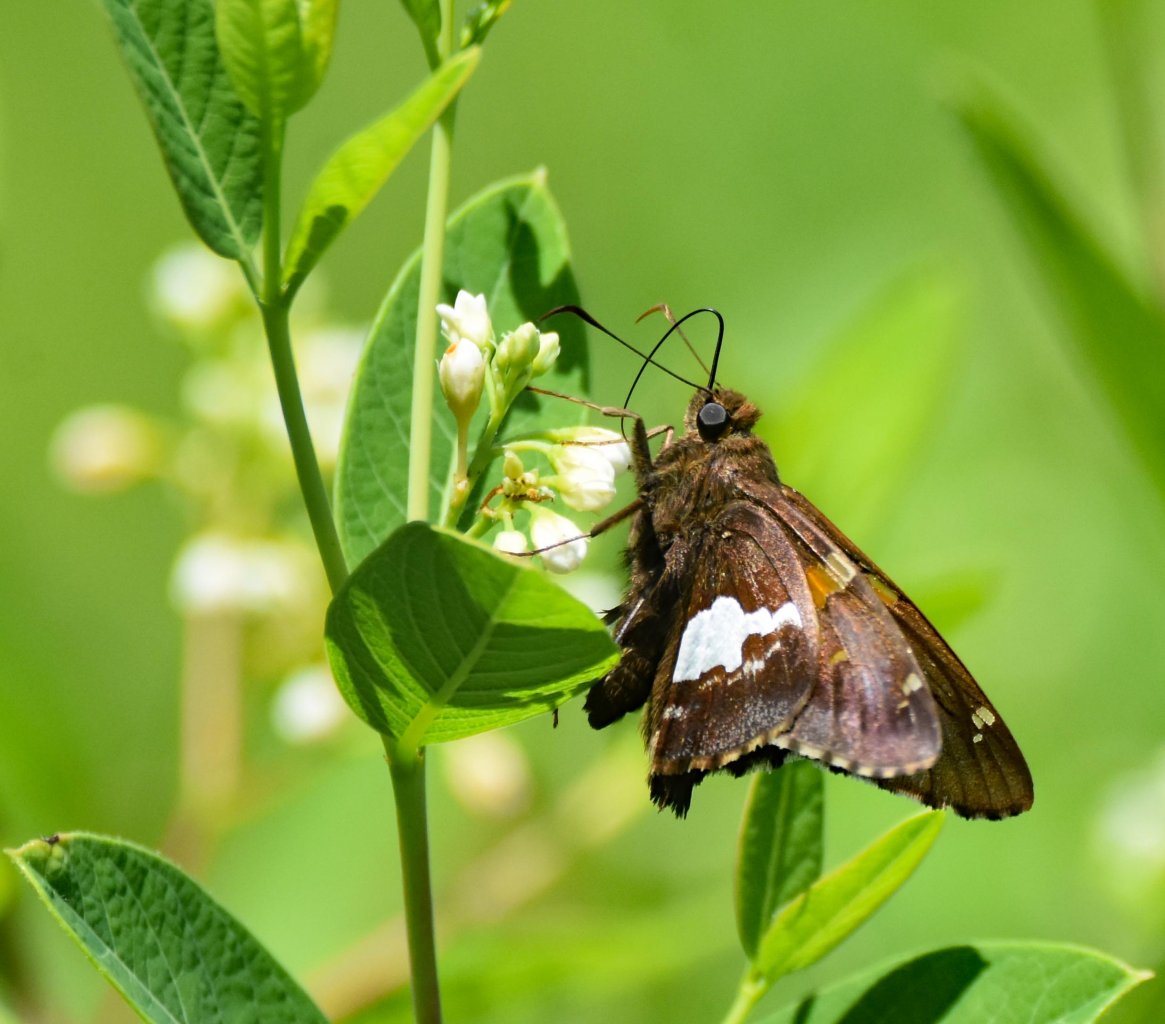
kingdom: Animalia
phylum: Arthropoda
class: Insecta
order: Lepidoptera
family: Hesperiidae
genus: Epargyreus
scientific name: Epargyreus clarus
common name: Silver-spotted Skipper
